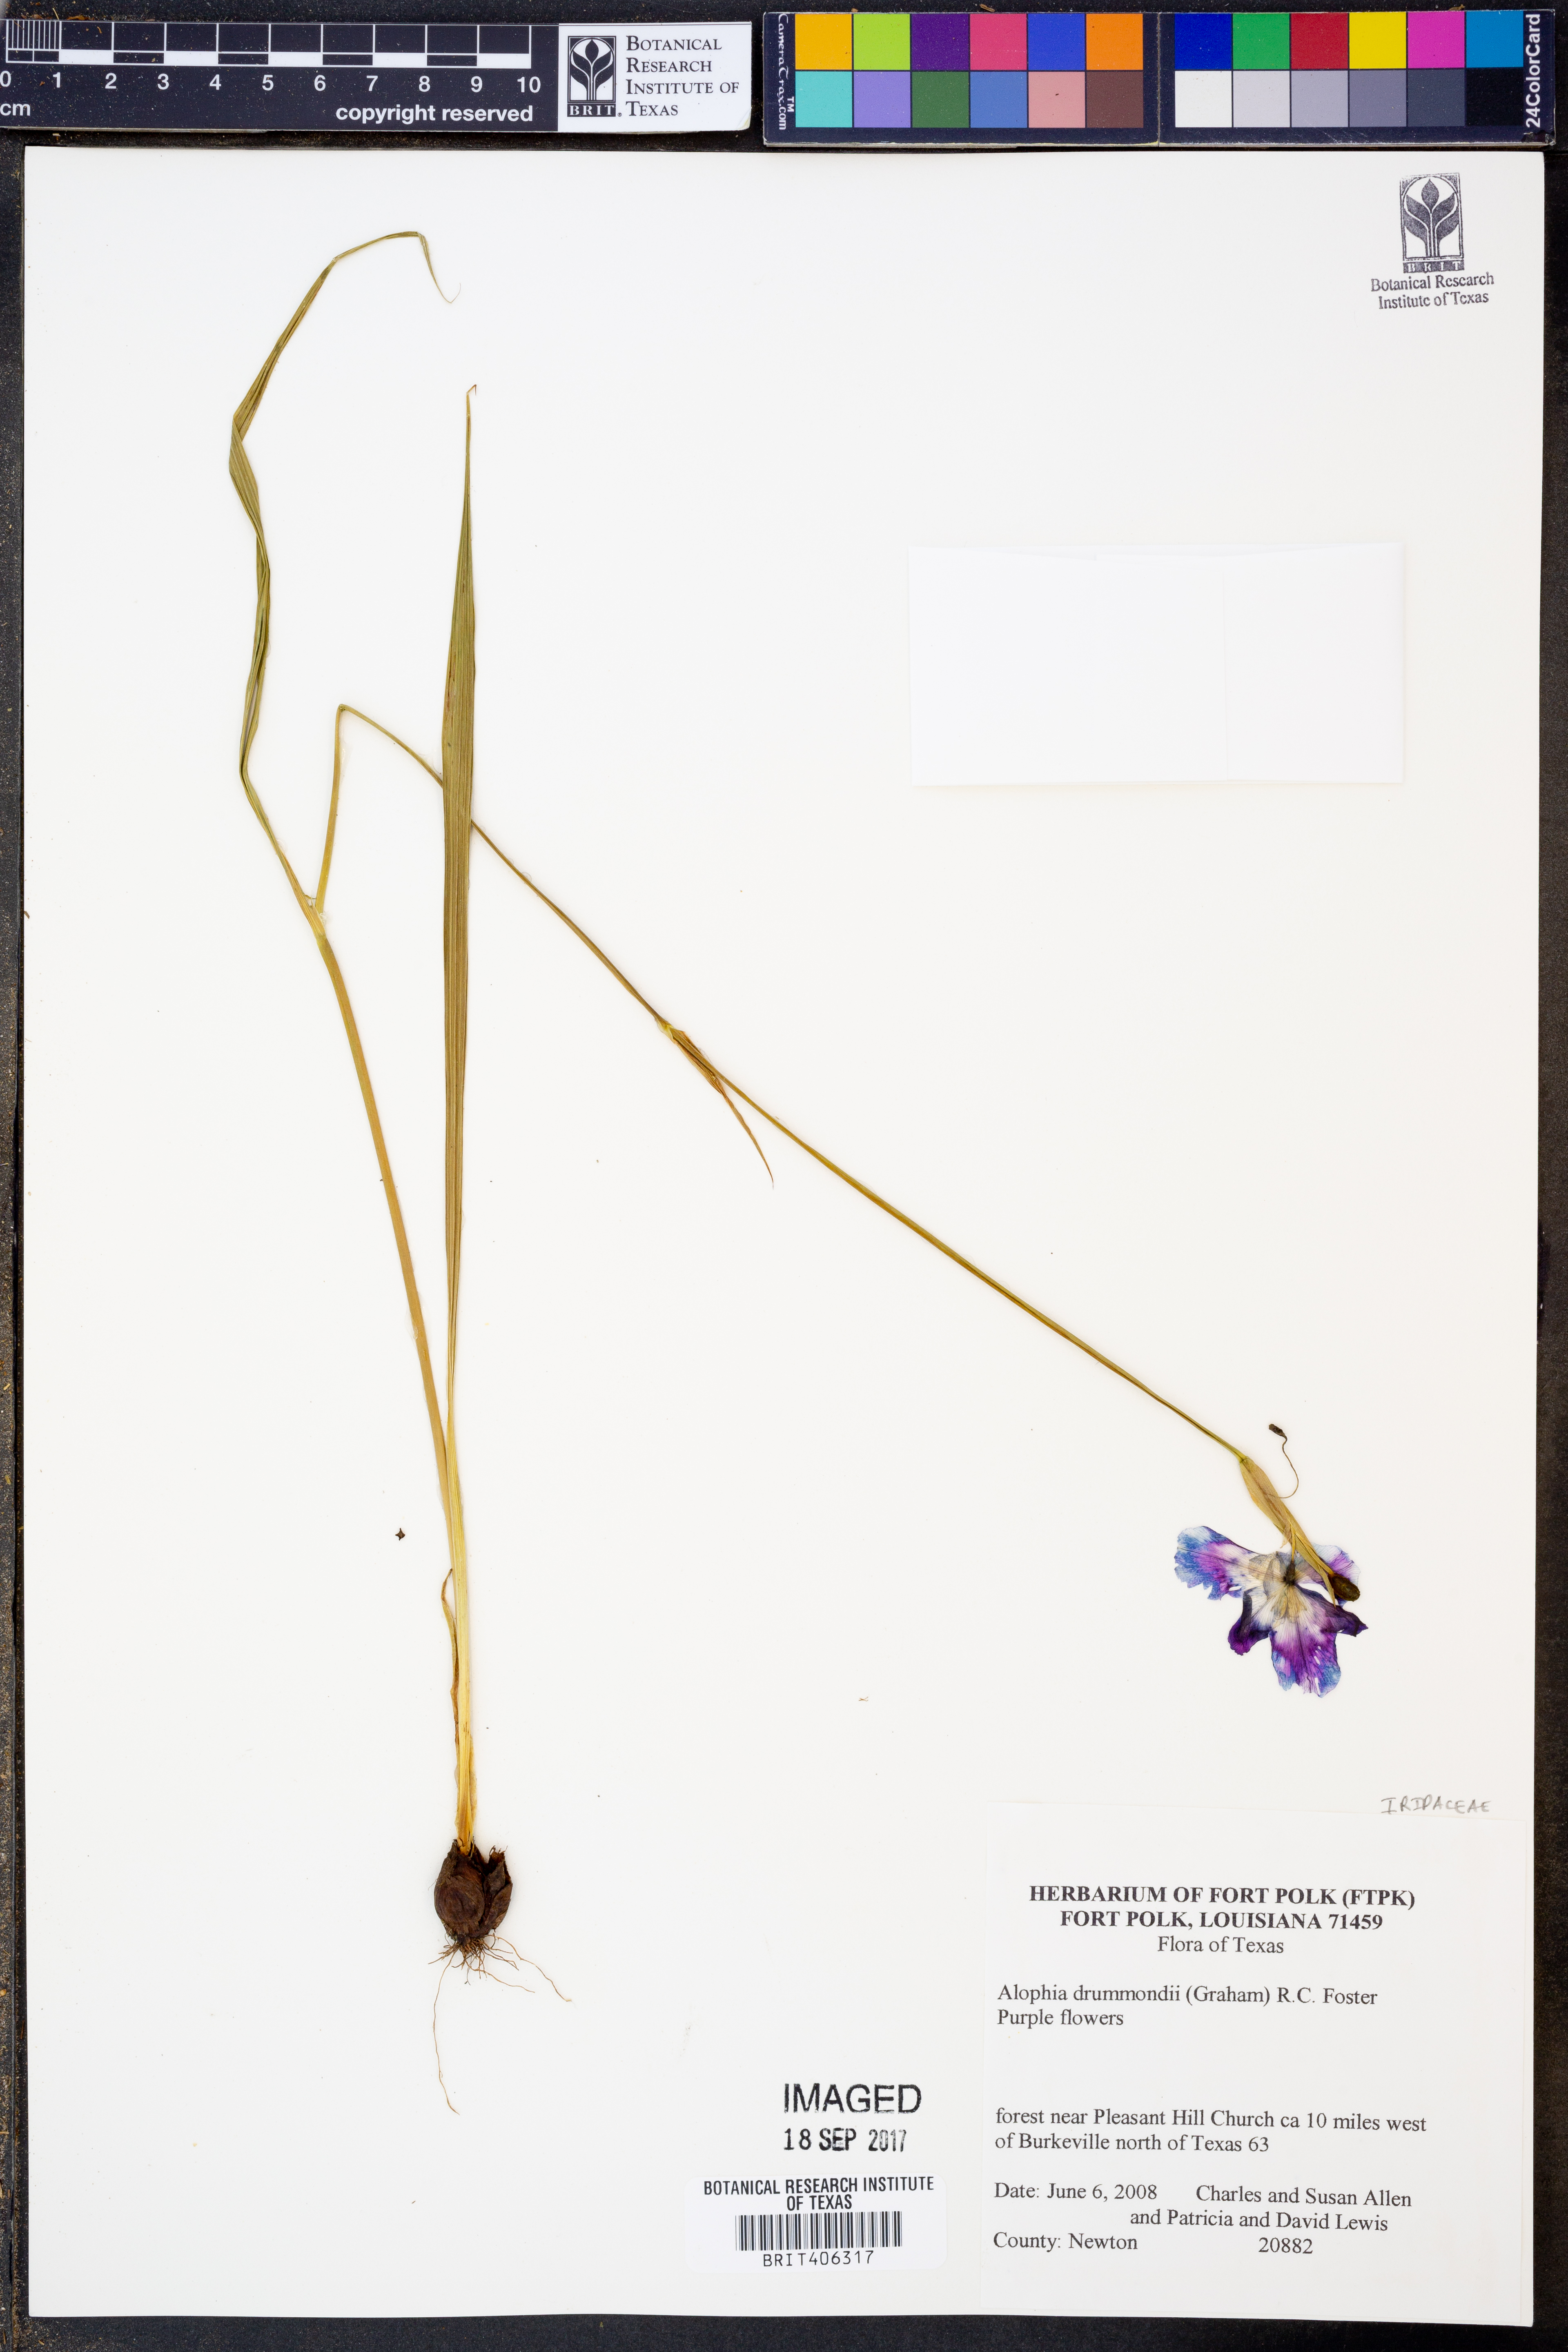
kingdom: Plantae
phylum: Tracheophyta
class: Liliopsida
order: Asparagales
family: Iridaceae
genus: Alophia
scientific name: Alophia drummondii
